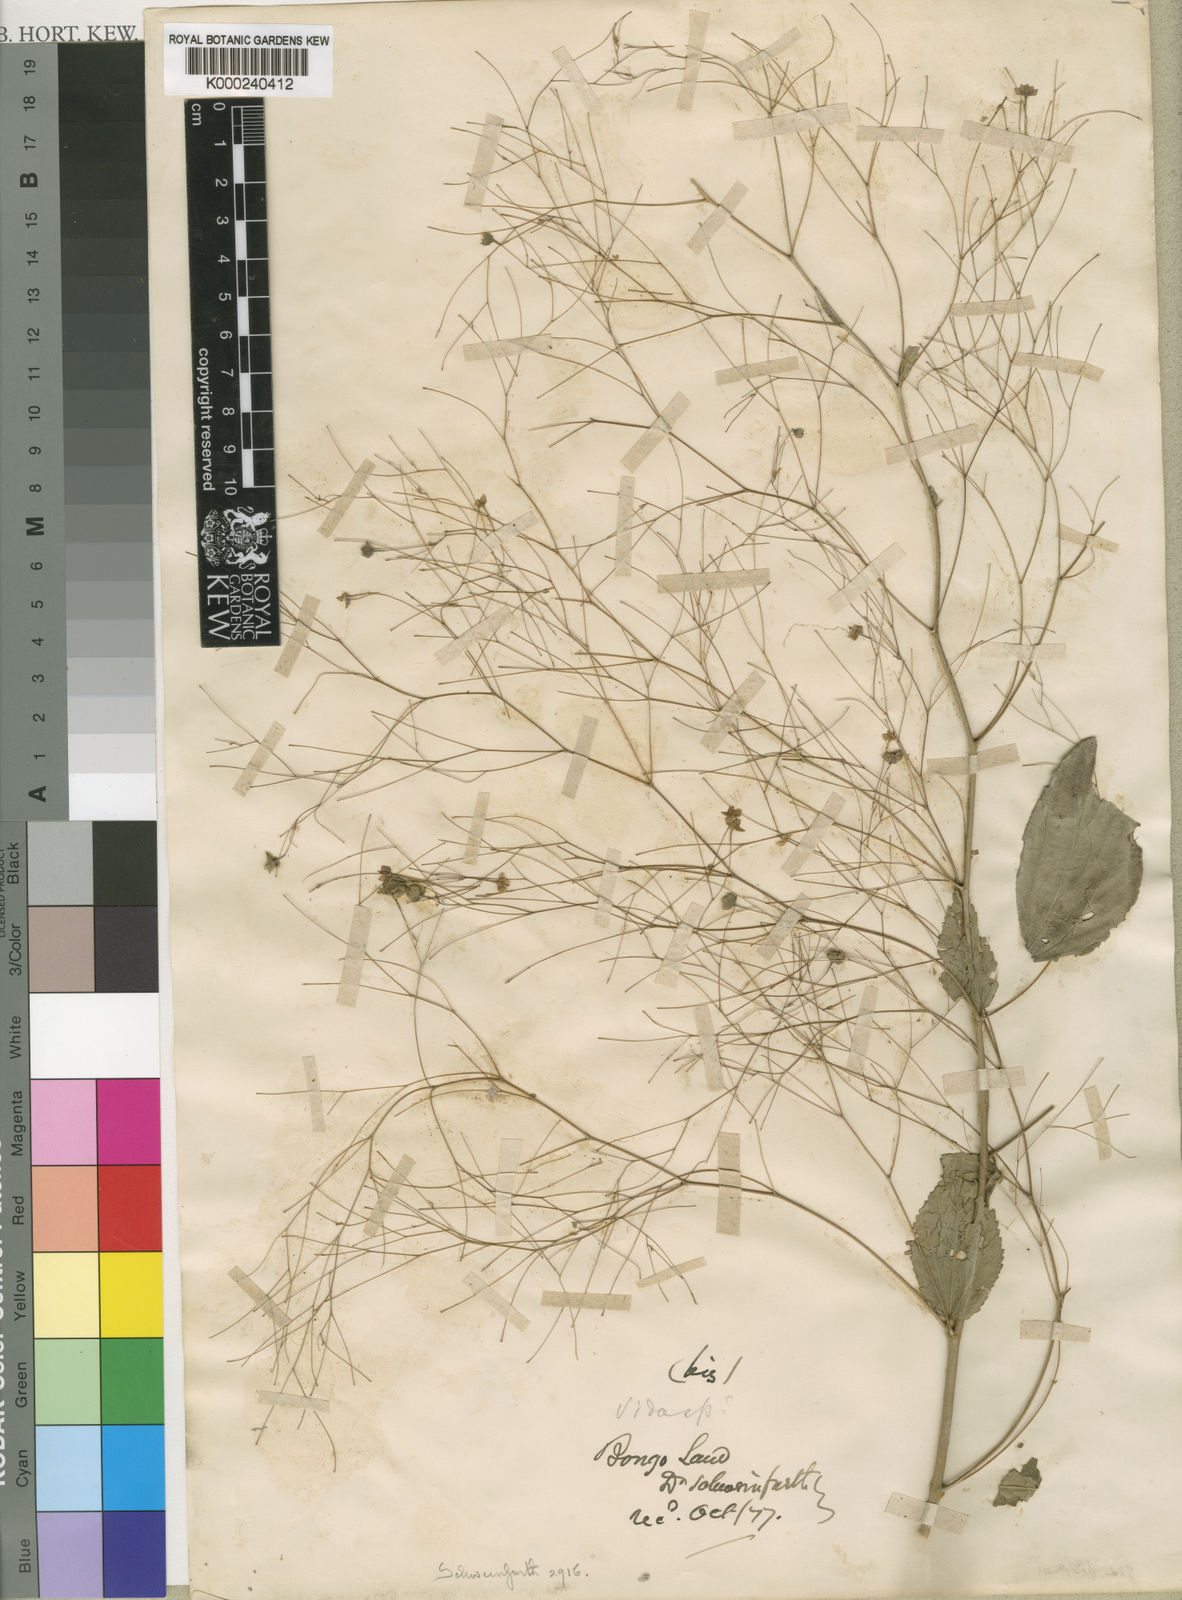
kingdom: Plantae
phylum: Tracheophyta
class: Magnoliopsida
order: Malvales
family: Malvaceae
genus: Sidastrum
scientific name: Sidastrum paniculatum
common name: Panicled sandmallow
